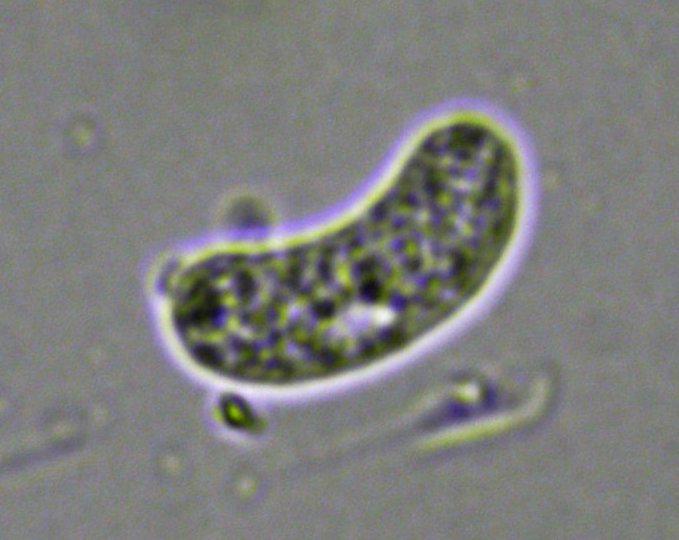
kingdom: Fungi
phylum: Basidiomycota
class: Agaricomycetes
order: Corticiales
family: Corticiaceae
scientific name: Corticiaceae
